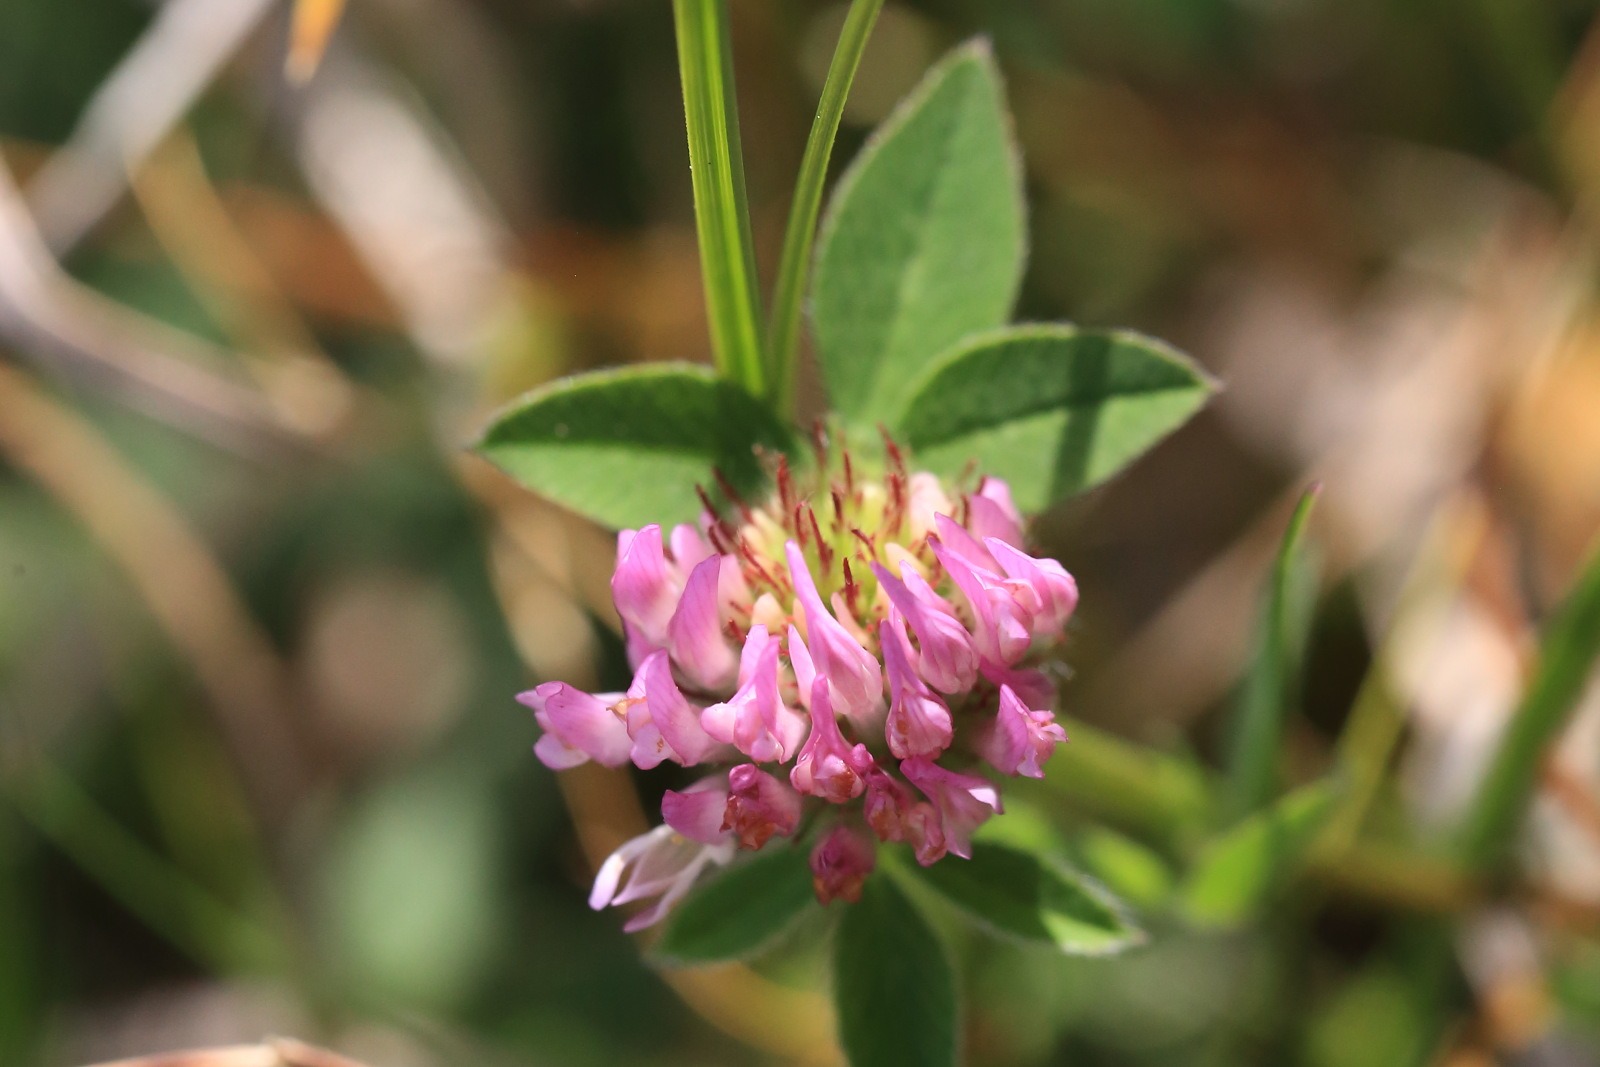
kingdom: Plantae
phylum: Tracheophyta
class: Magnoliopsida
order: Fabales
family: Fabaceae
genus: Trifolium
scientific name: Trifolium pratense
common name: Rød-kløver
